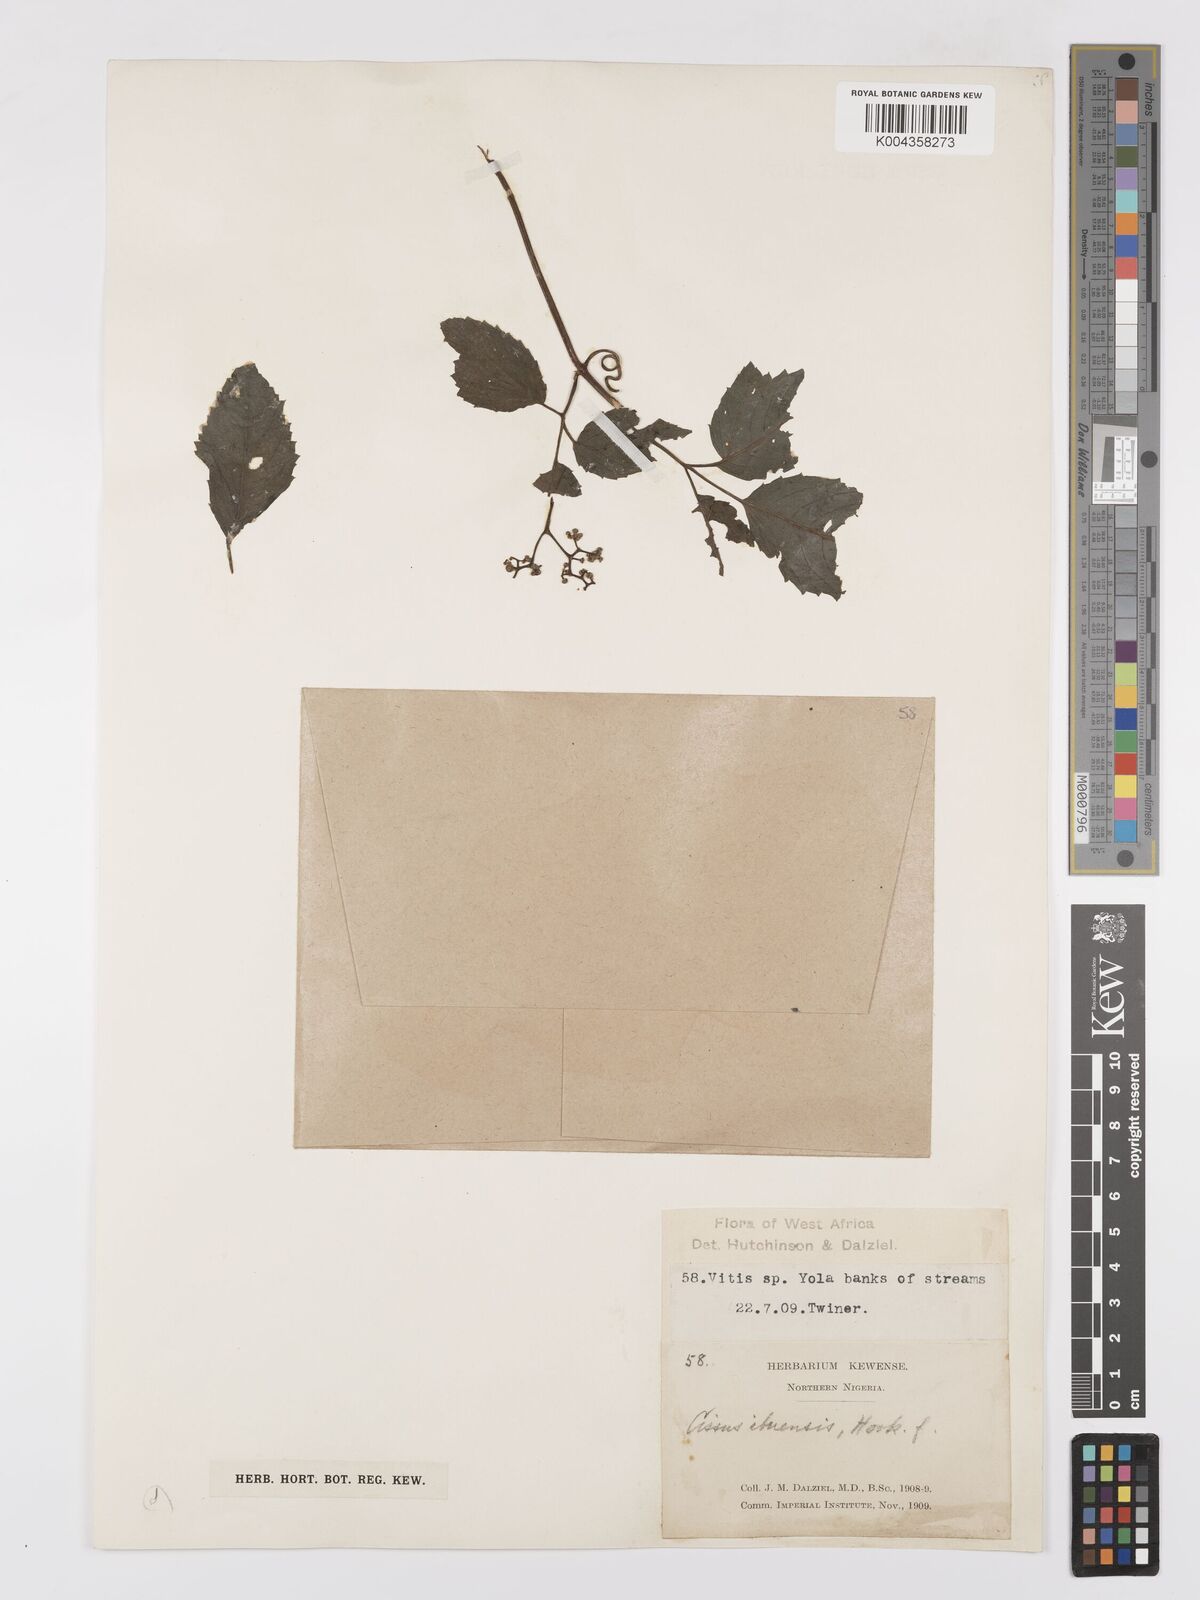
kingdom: Plantae
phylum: Tracheophyta
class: Magnoliopsida
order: Vitales
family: Vitaceae
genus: Afrocayratia
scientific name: Afrocayratia ibuensis
